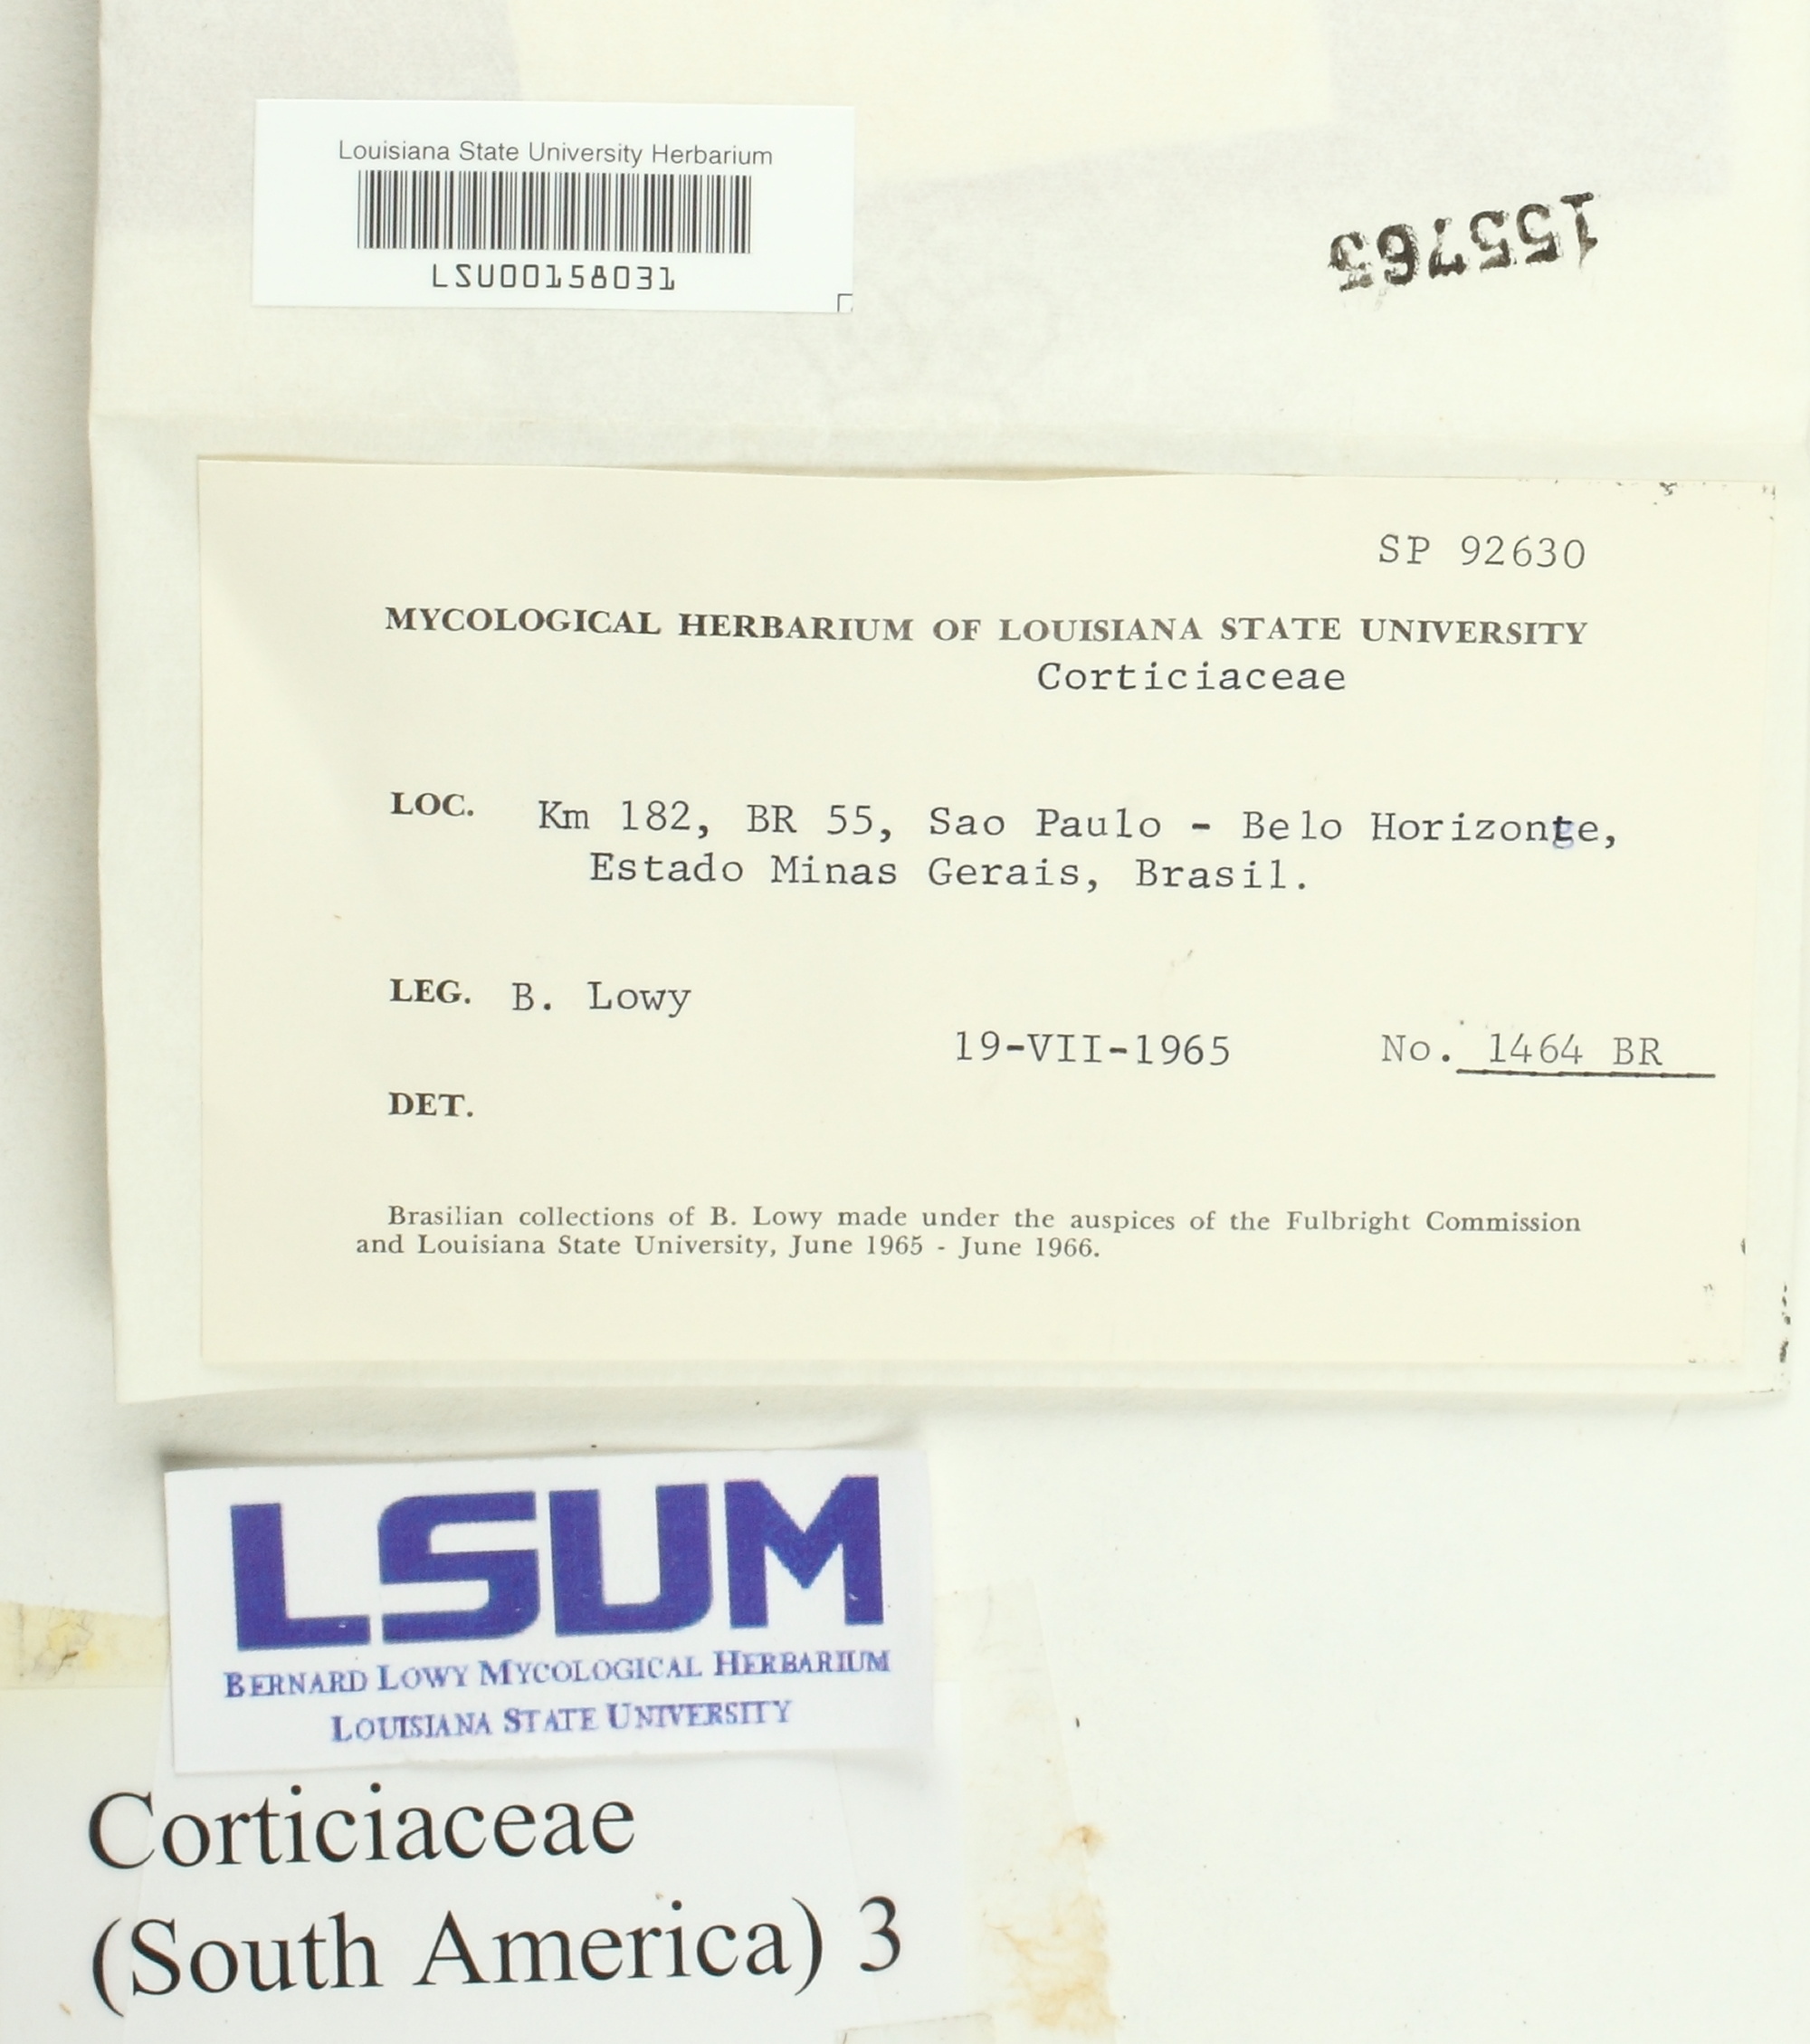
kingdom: Fungi
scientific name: Fungi
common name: Fungi
